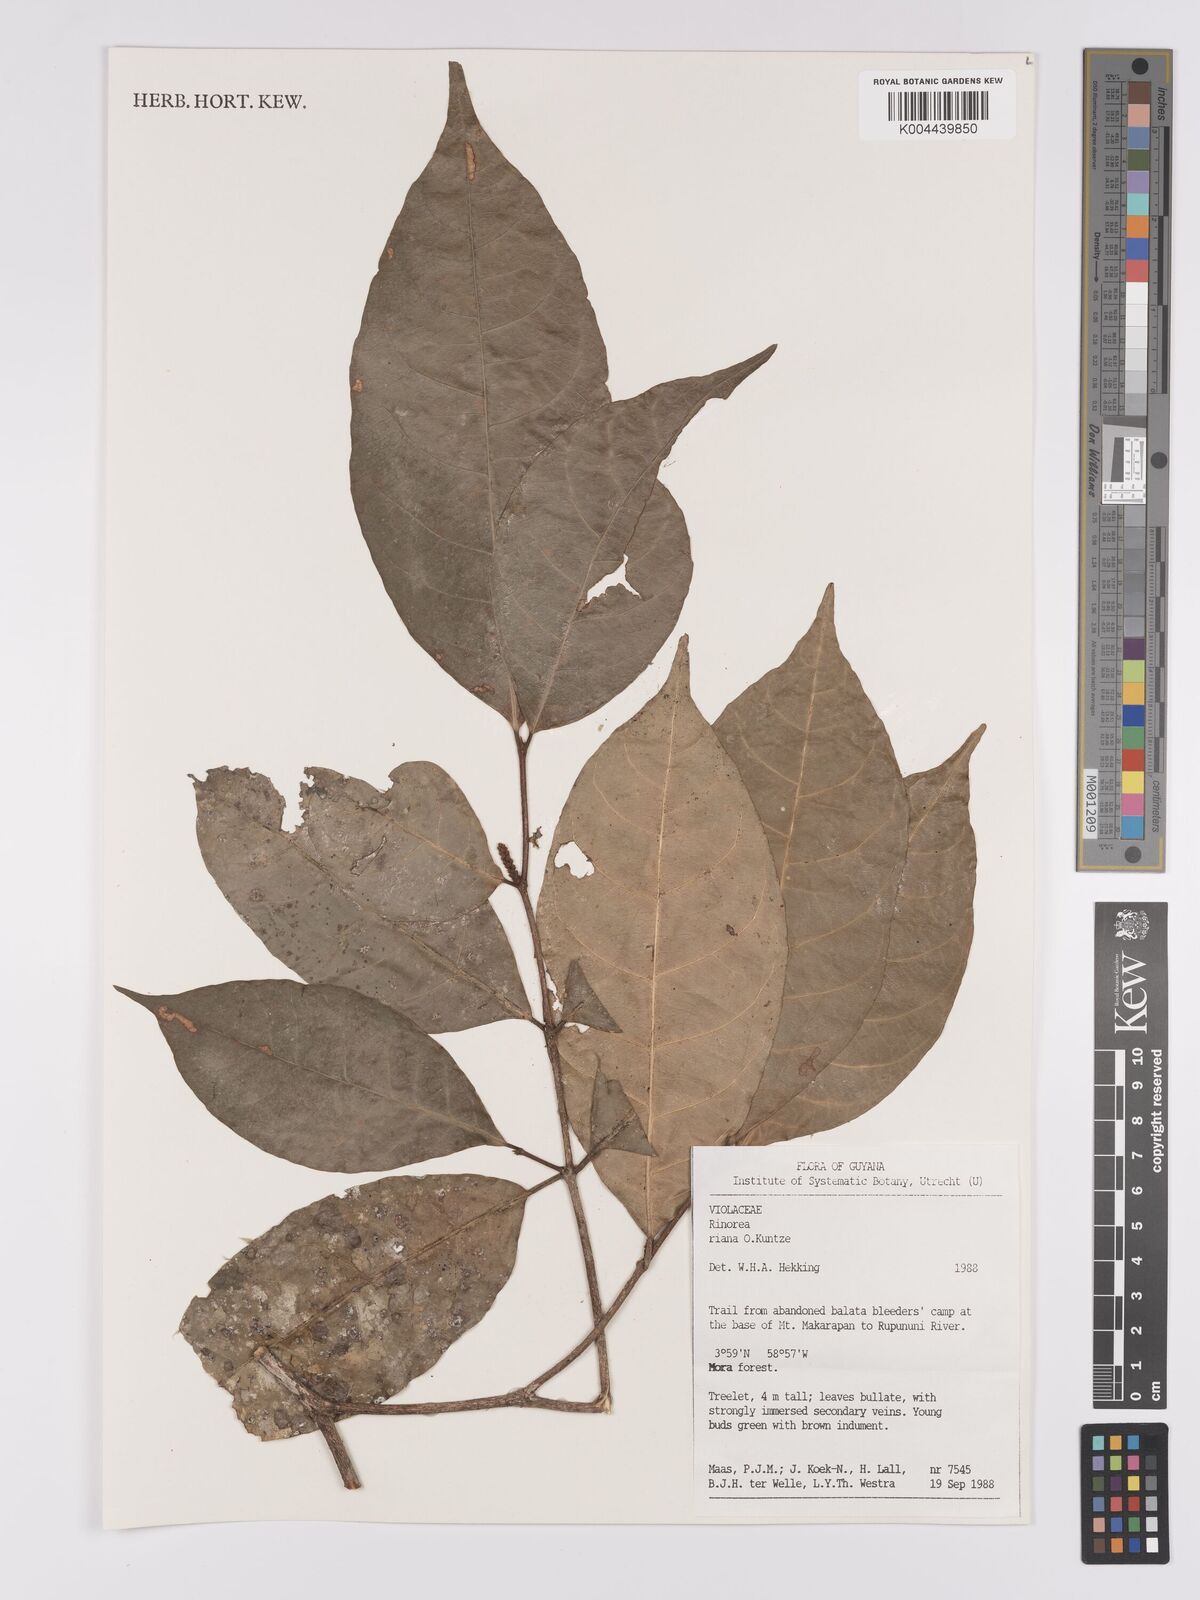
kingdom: Plantae
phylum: Tracheophyta
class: Magnoliopsida
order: Malpighiales
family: Violaceae
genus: Rinorea
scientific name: Rinorea riana
